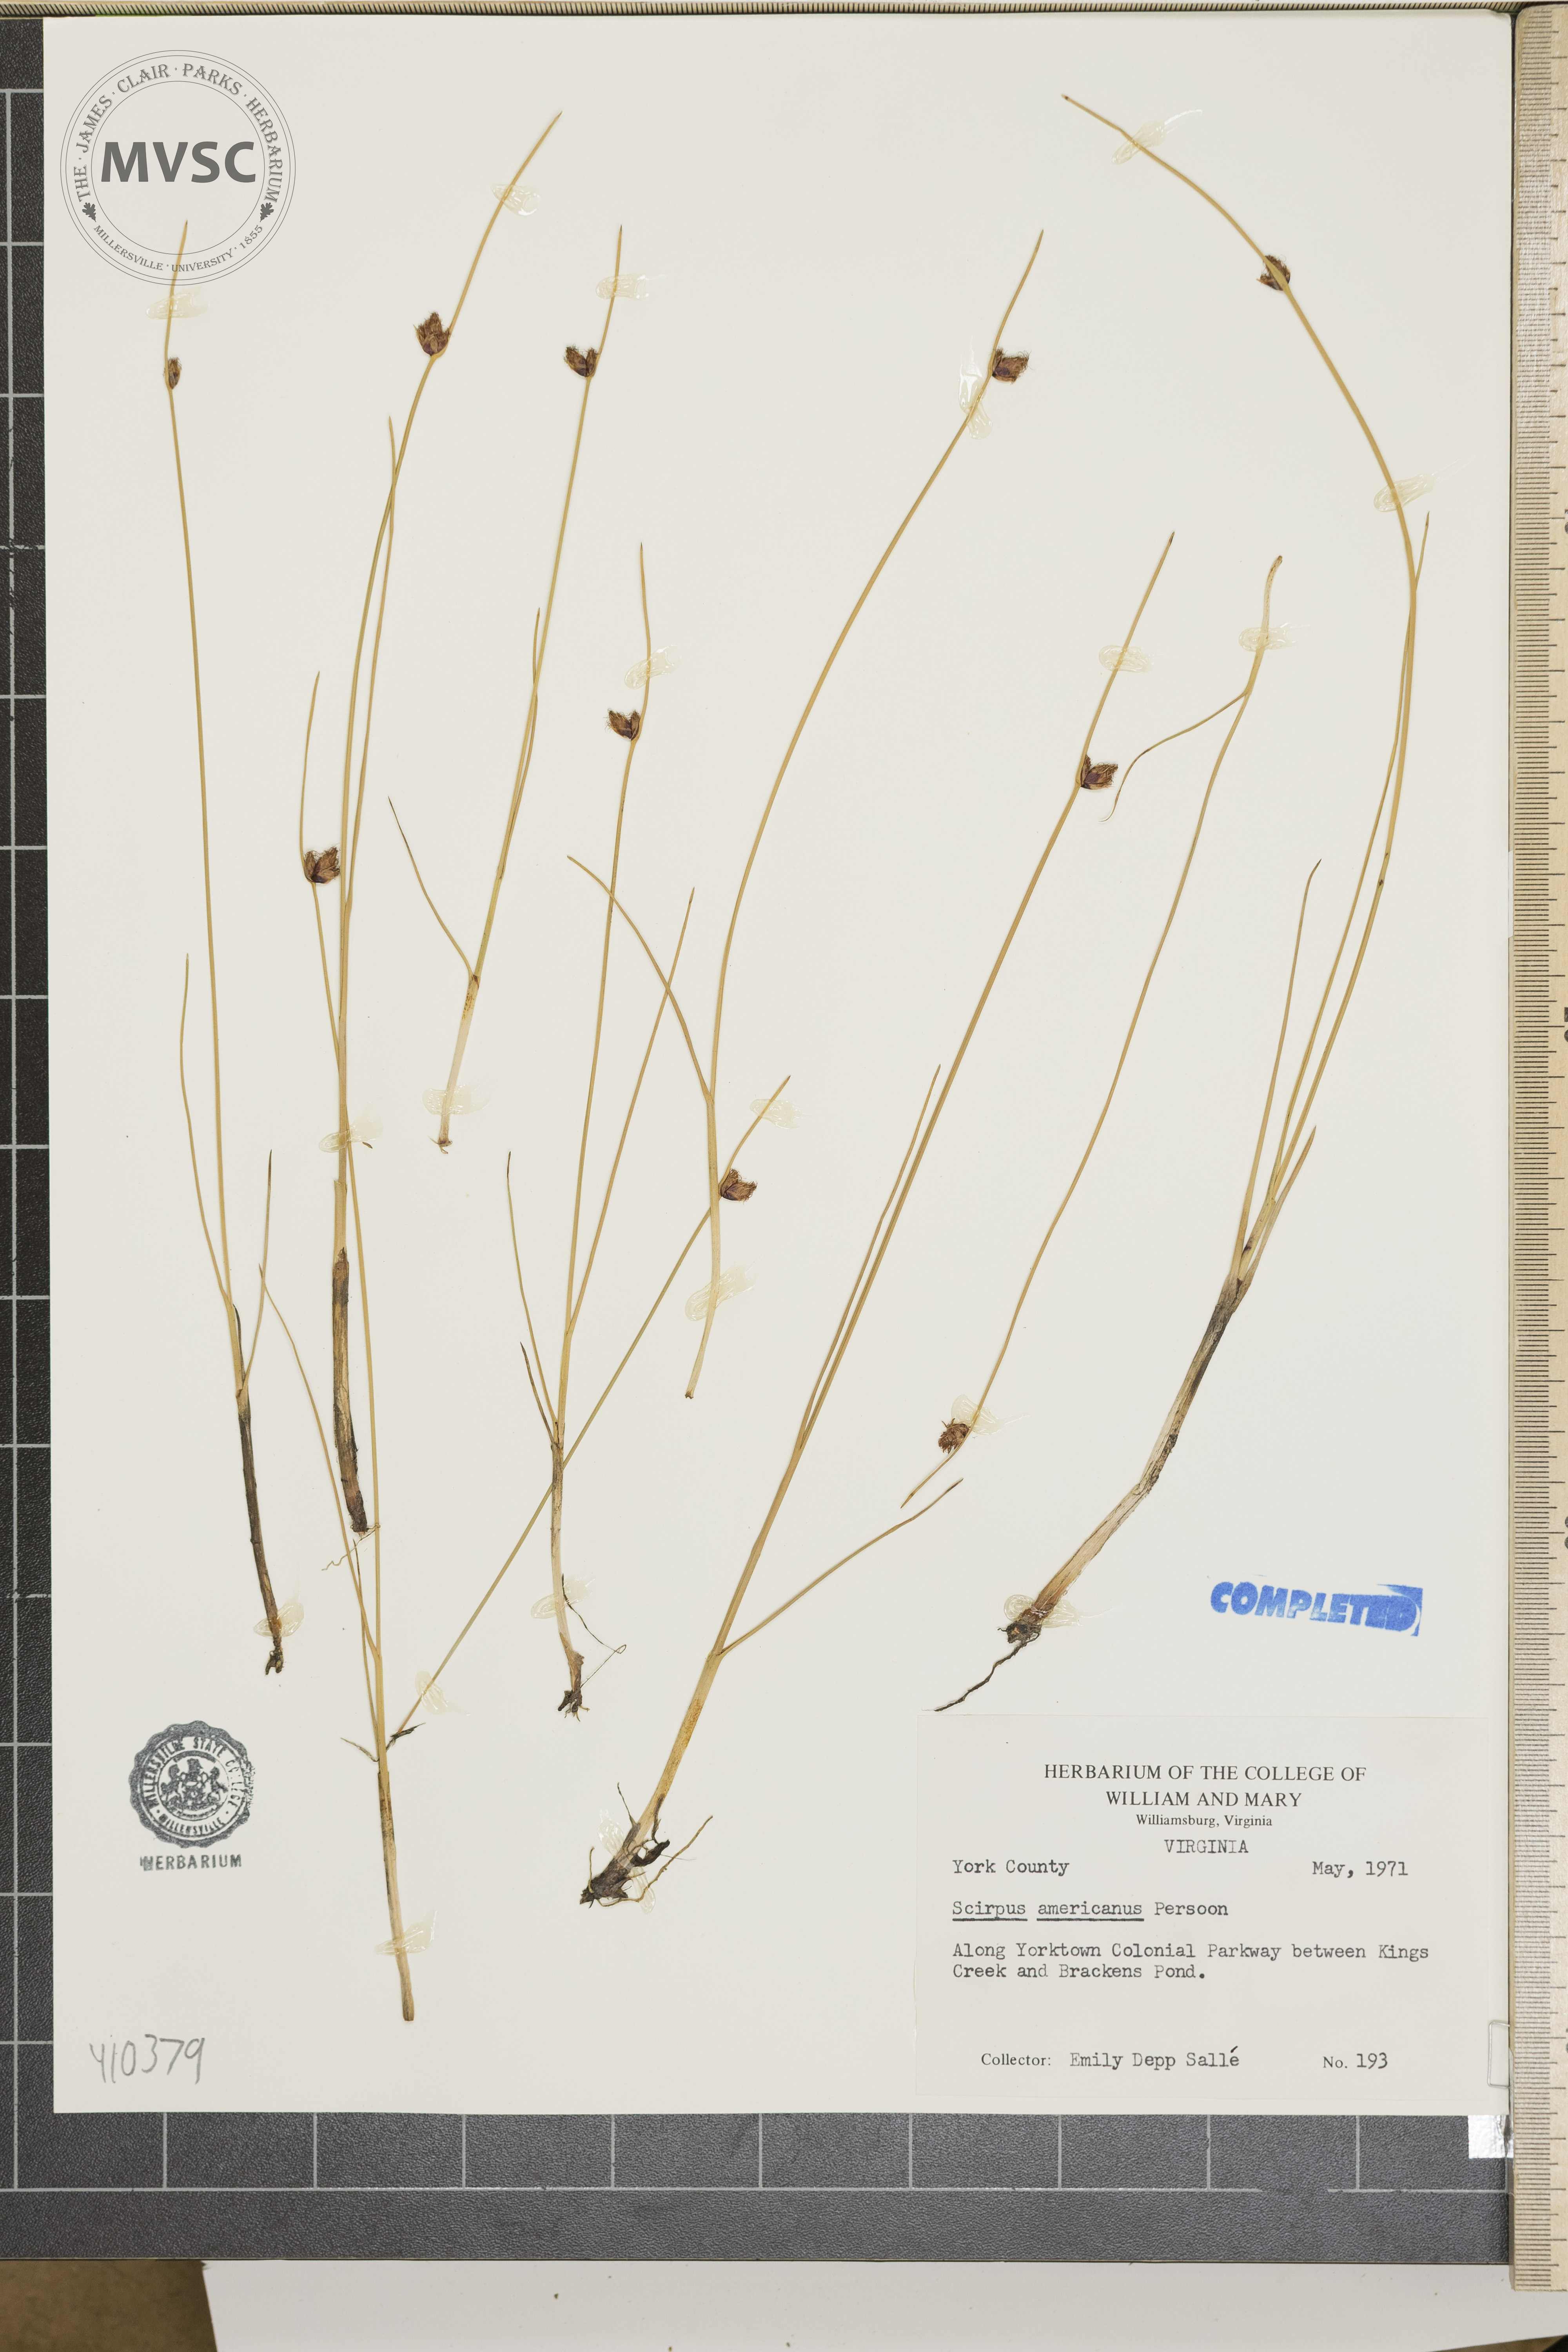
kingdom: Plantae
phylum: Tracheophyta
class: Liliopsida
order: Poales
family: Cyperaceae
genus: Scirpus
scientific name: Scirpus polyphyllus
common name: Leafy bulrush
